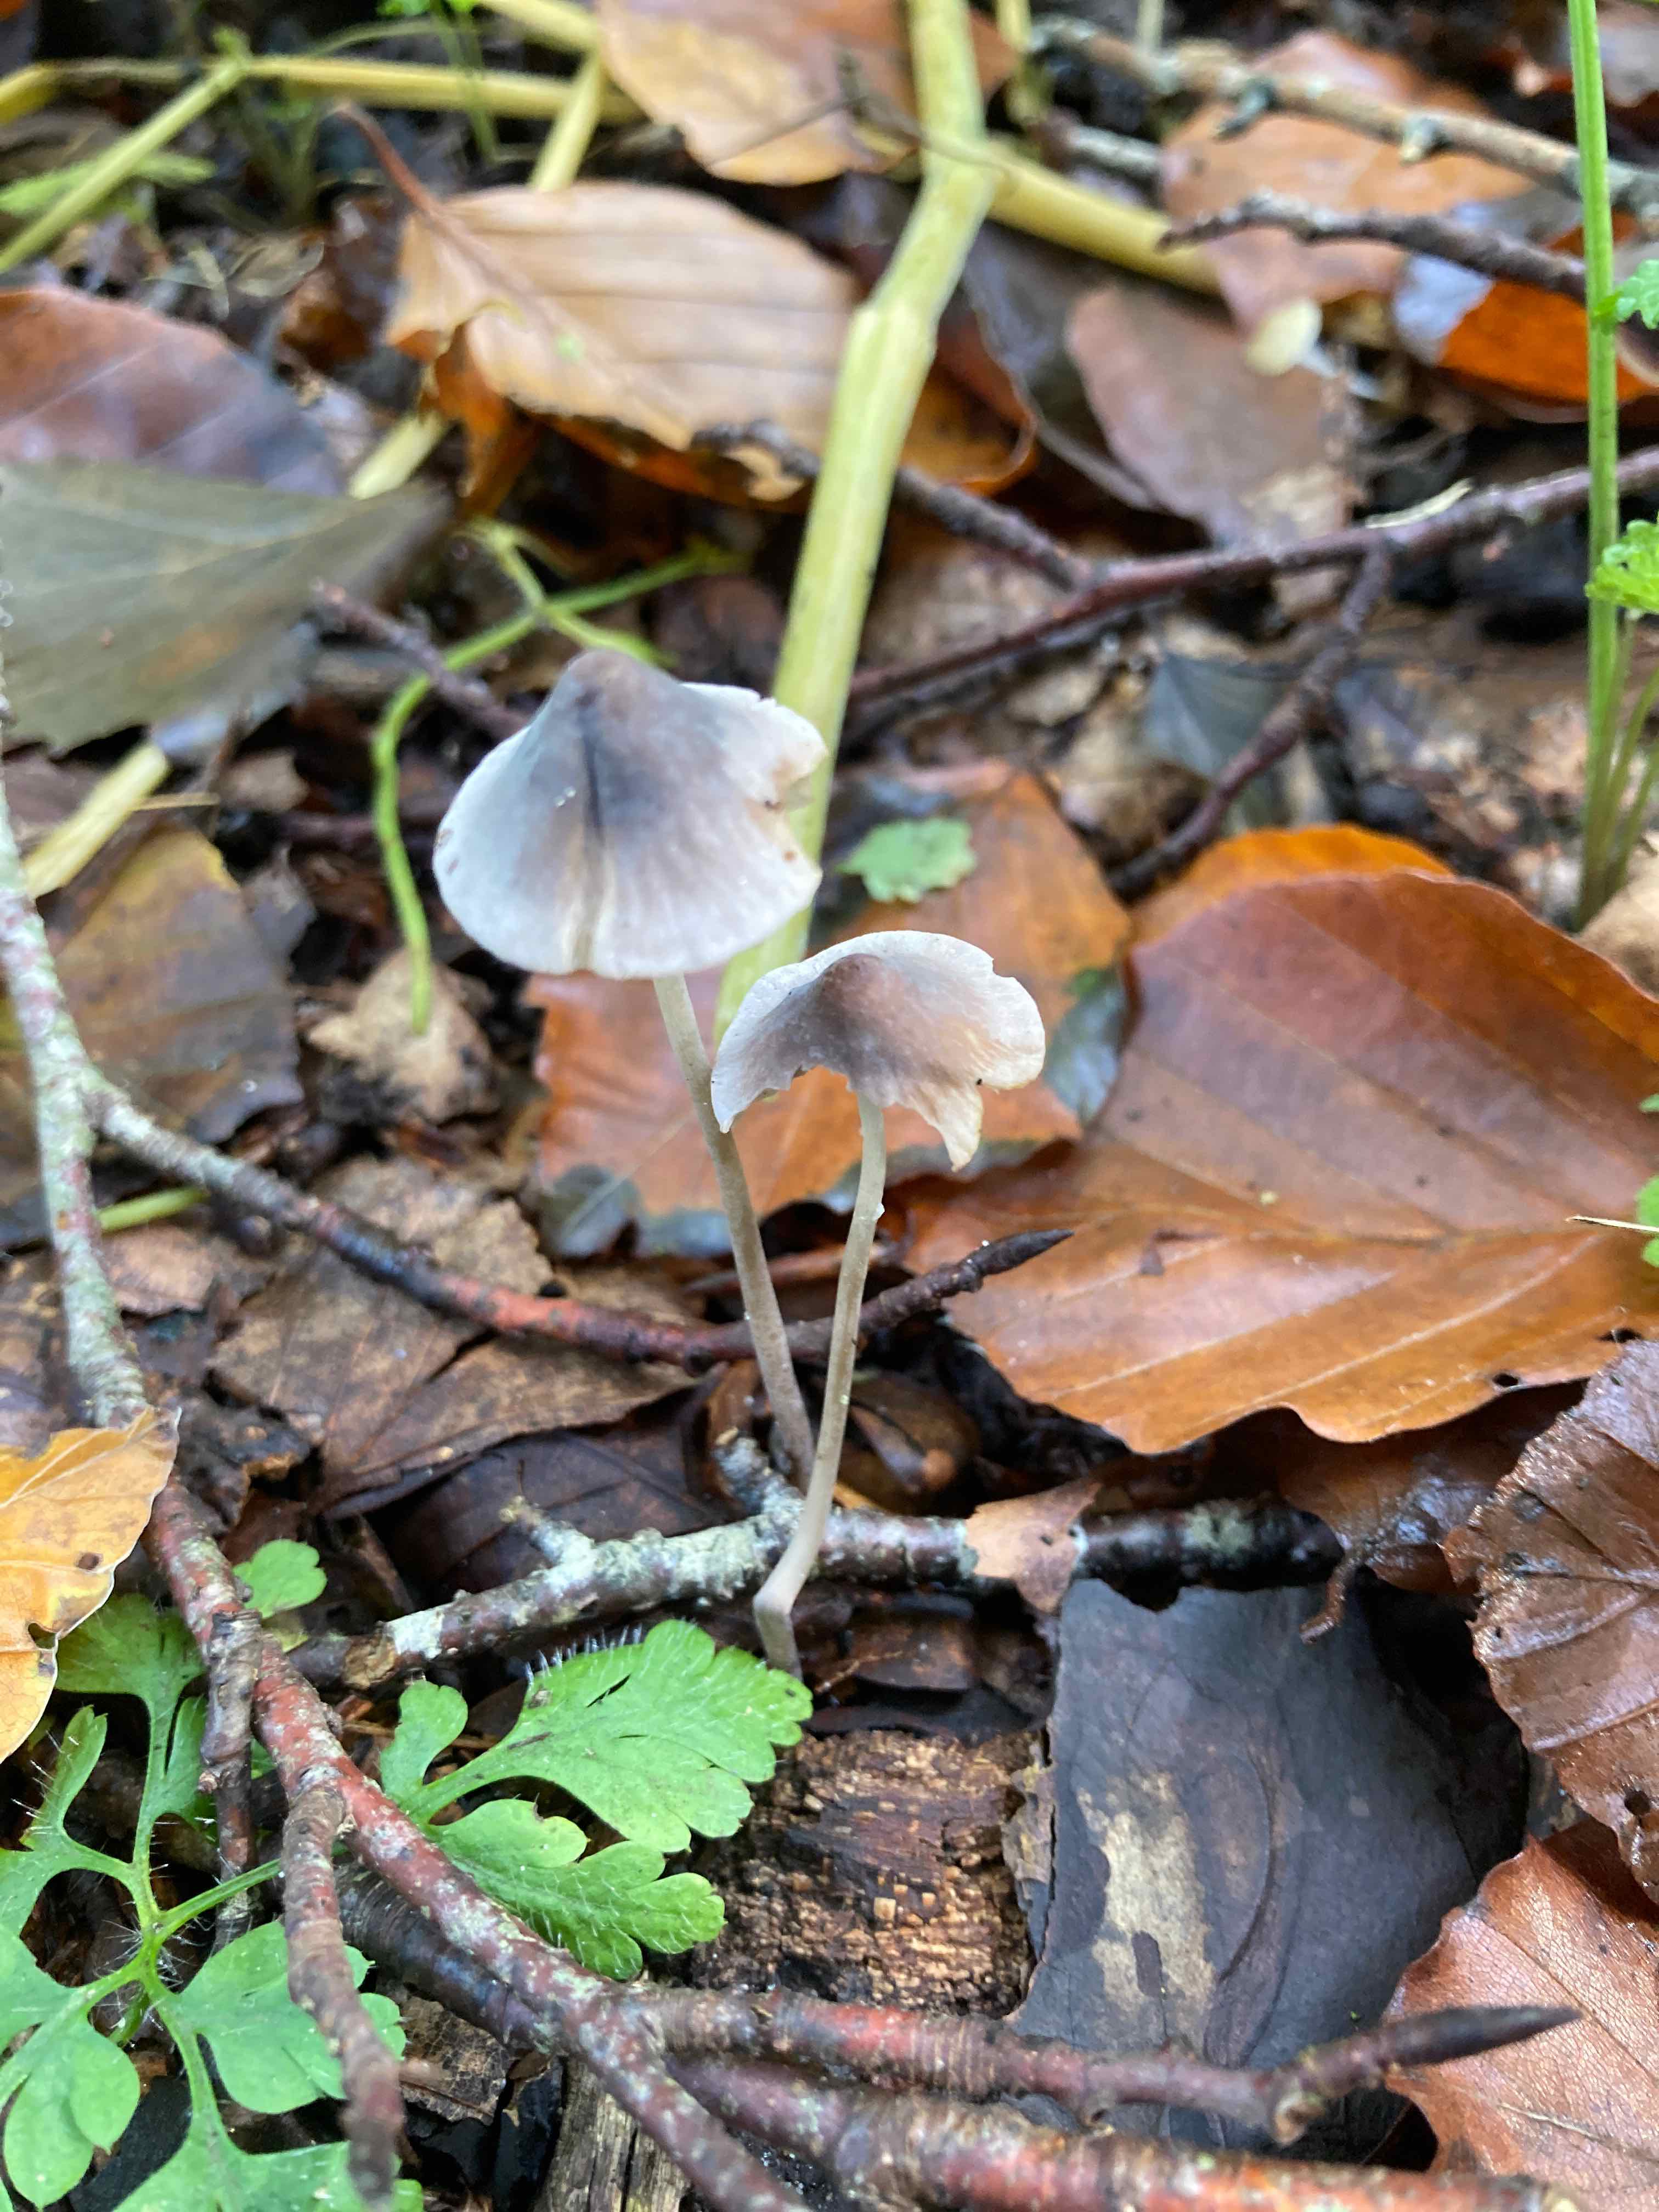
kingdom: Fungi
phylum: Basidiomycota
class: Agaricomycetes
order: Agaricales
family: Mycenaceae
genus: Mycena
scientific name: Mycena filopes
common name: jod-huesvamp
